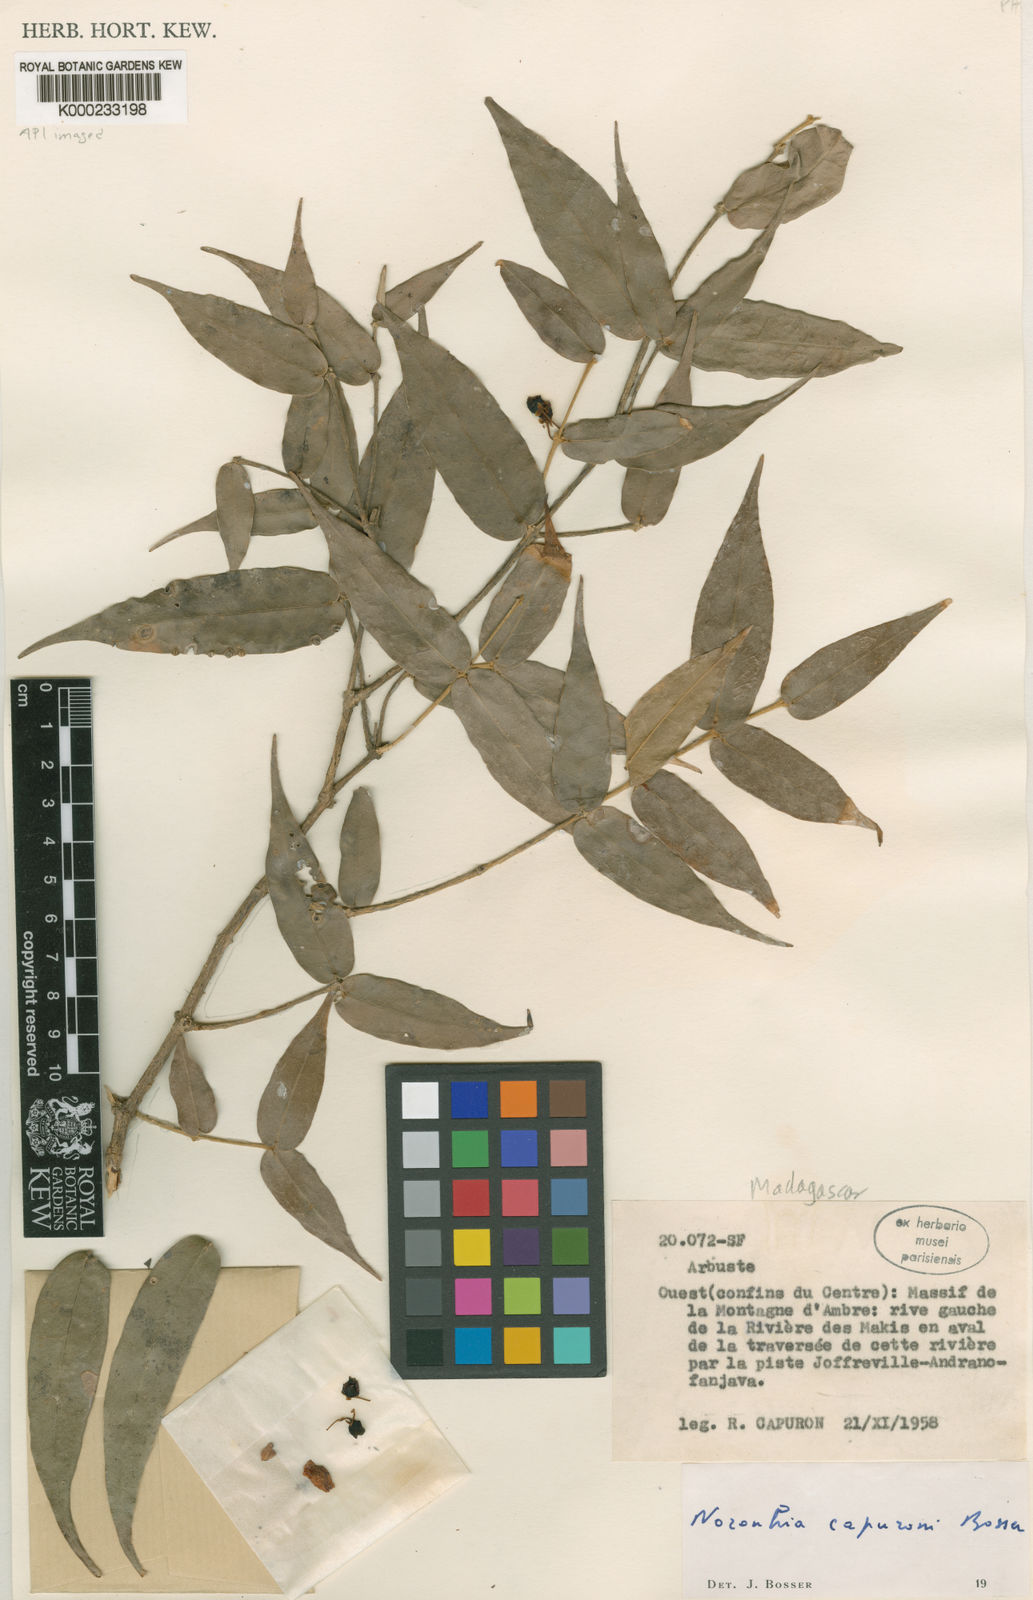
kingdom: Plantae
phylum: Tracheophyta
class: Magnoliopsida
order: Lamiales
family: Oleaceae
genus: Noronhia
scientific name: Noronhia capuronii
